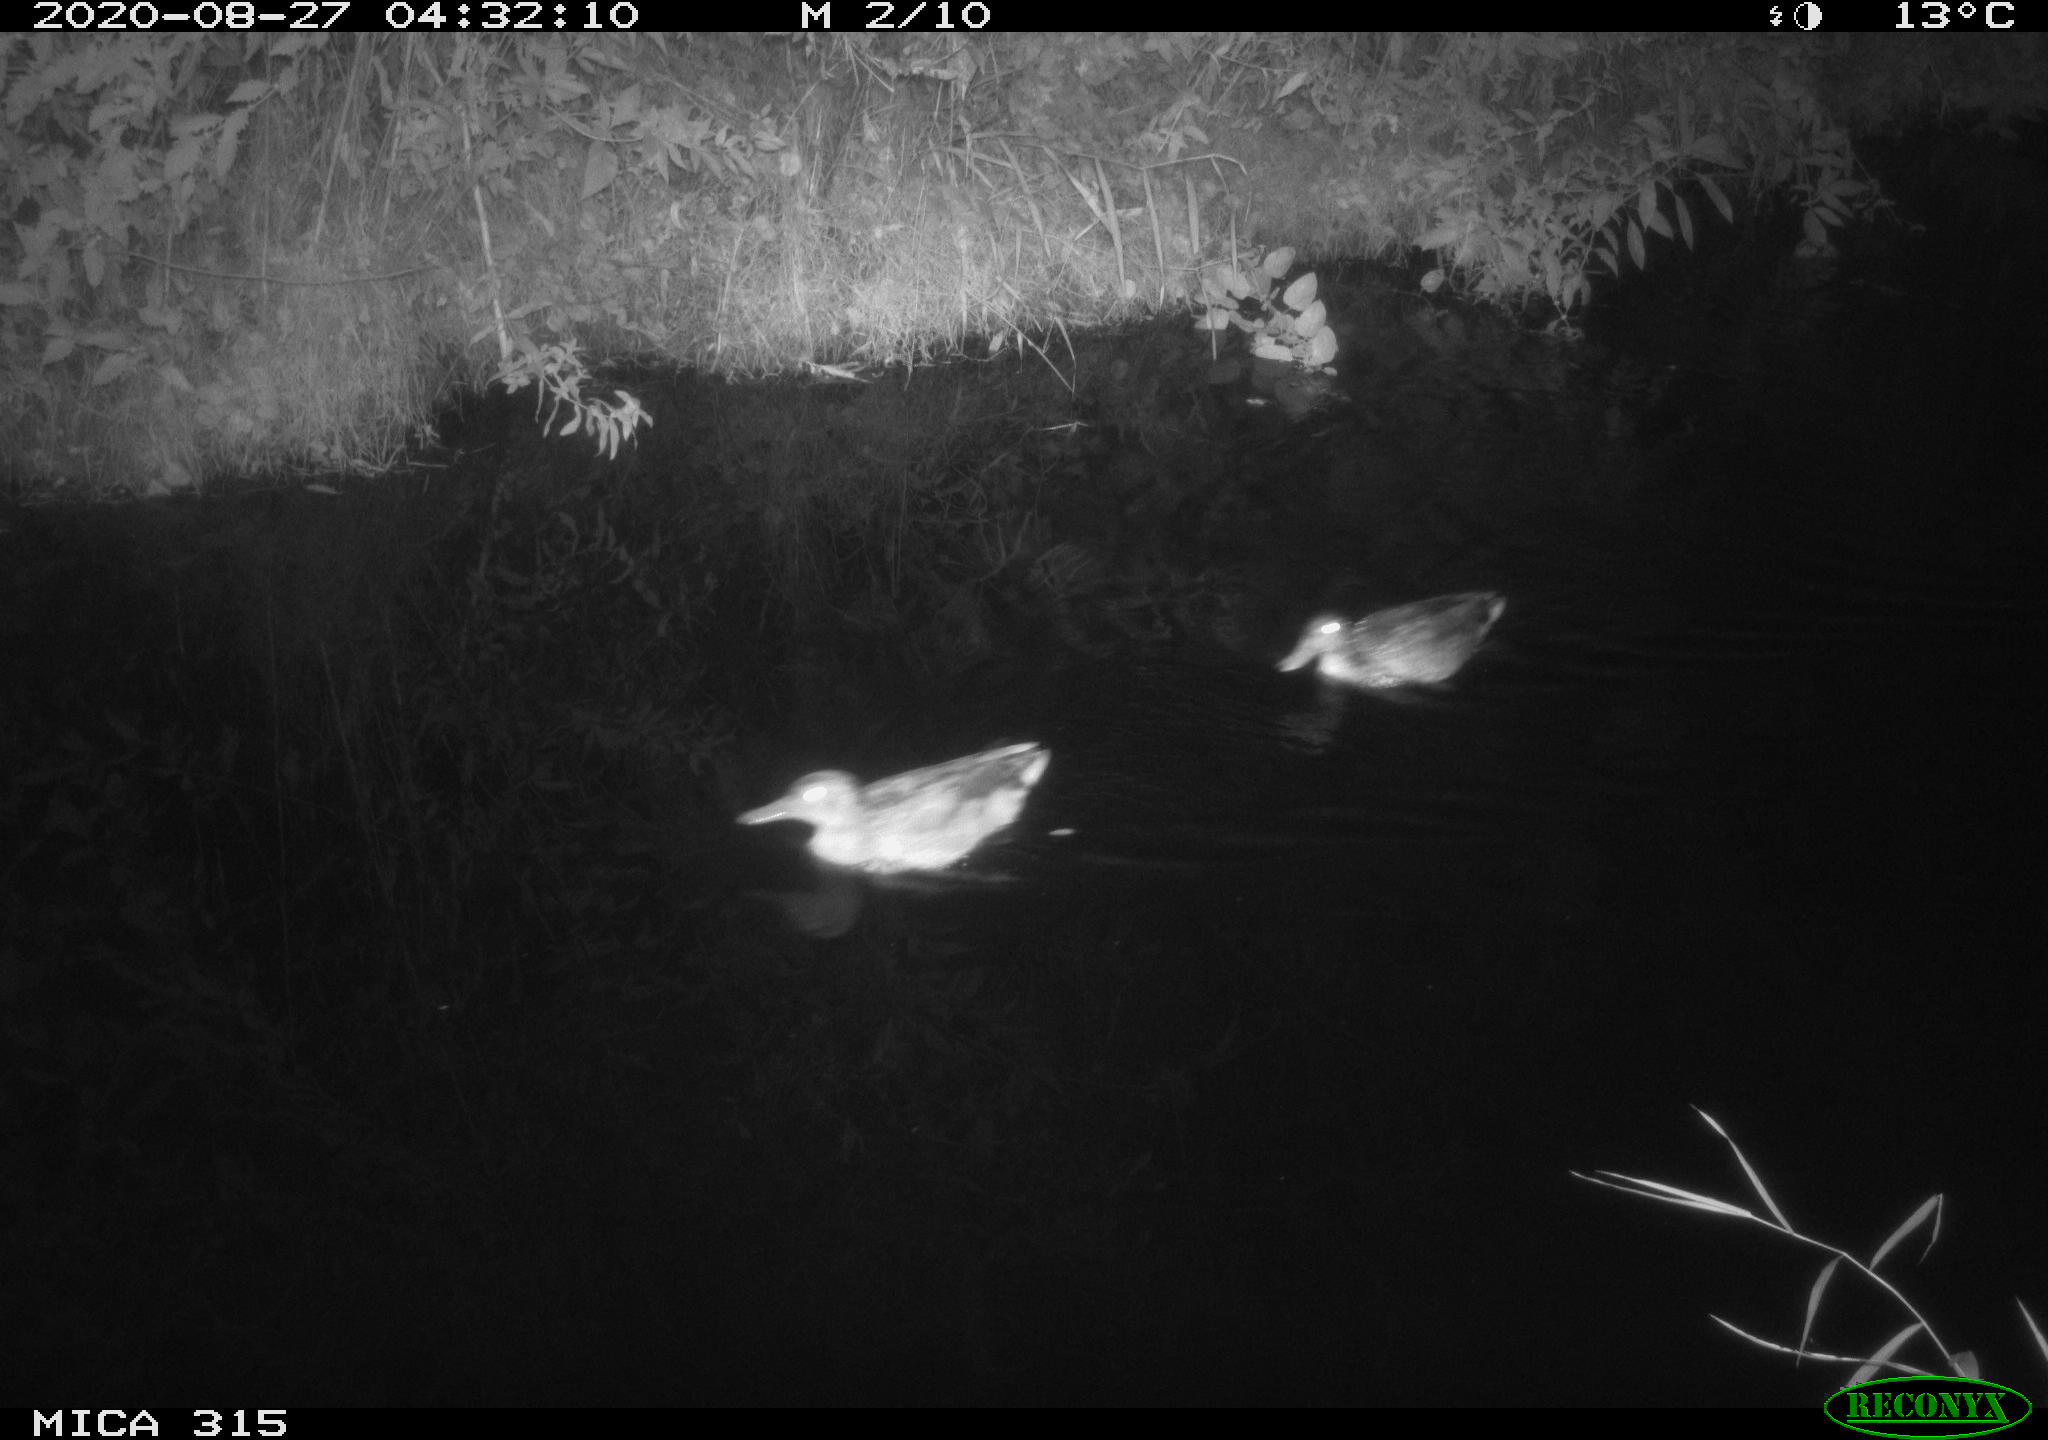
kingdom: Animalia
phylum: Chordata
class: Aves
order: Anseriformes
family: Anatidae
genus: Anas
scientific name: Anas platyrhynchos
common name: Mallard
